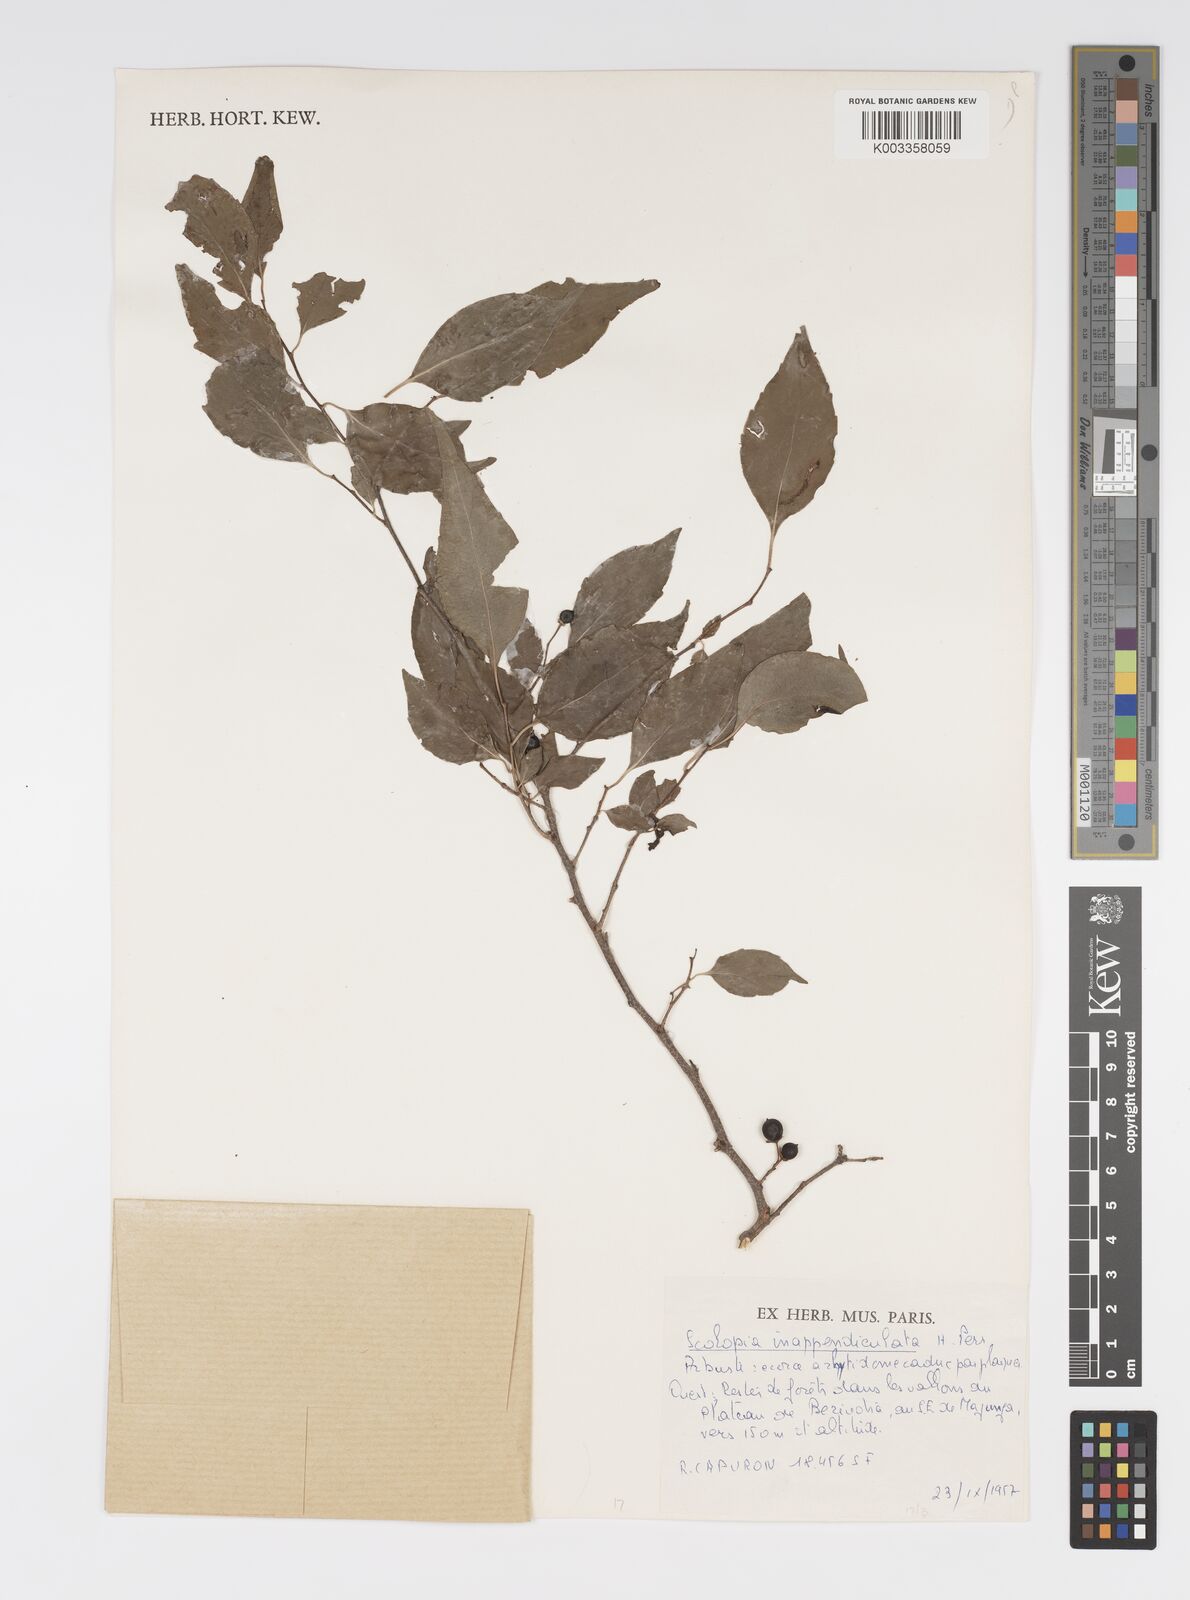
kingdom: Plantae
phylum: Tracheophyta
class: Magnoliopsida
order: Malpighiales
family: Salicaceae
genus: Scolopia
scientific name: Scolopia inappendiculata
